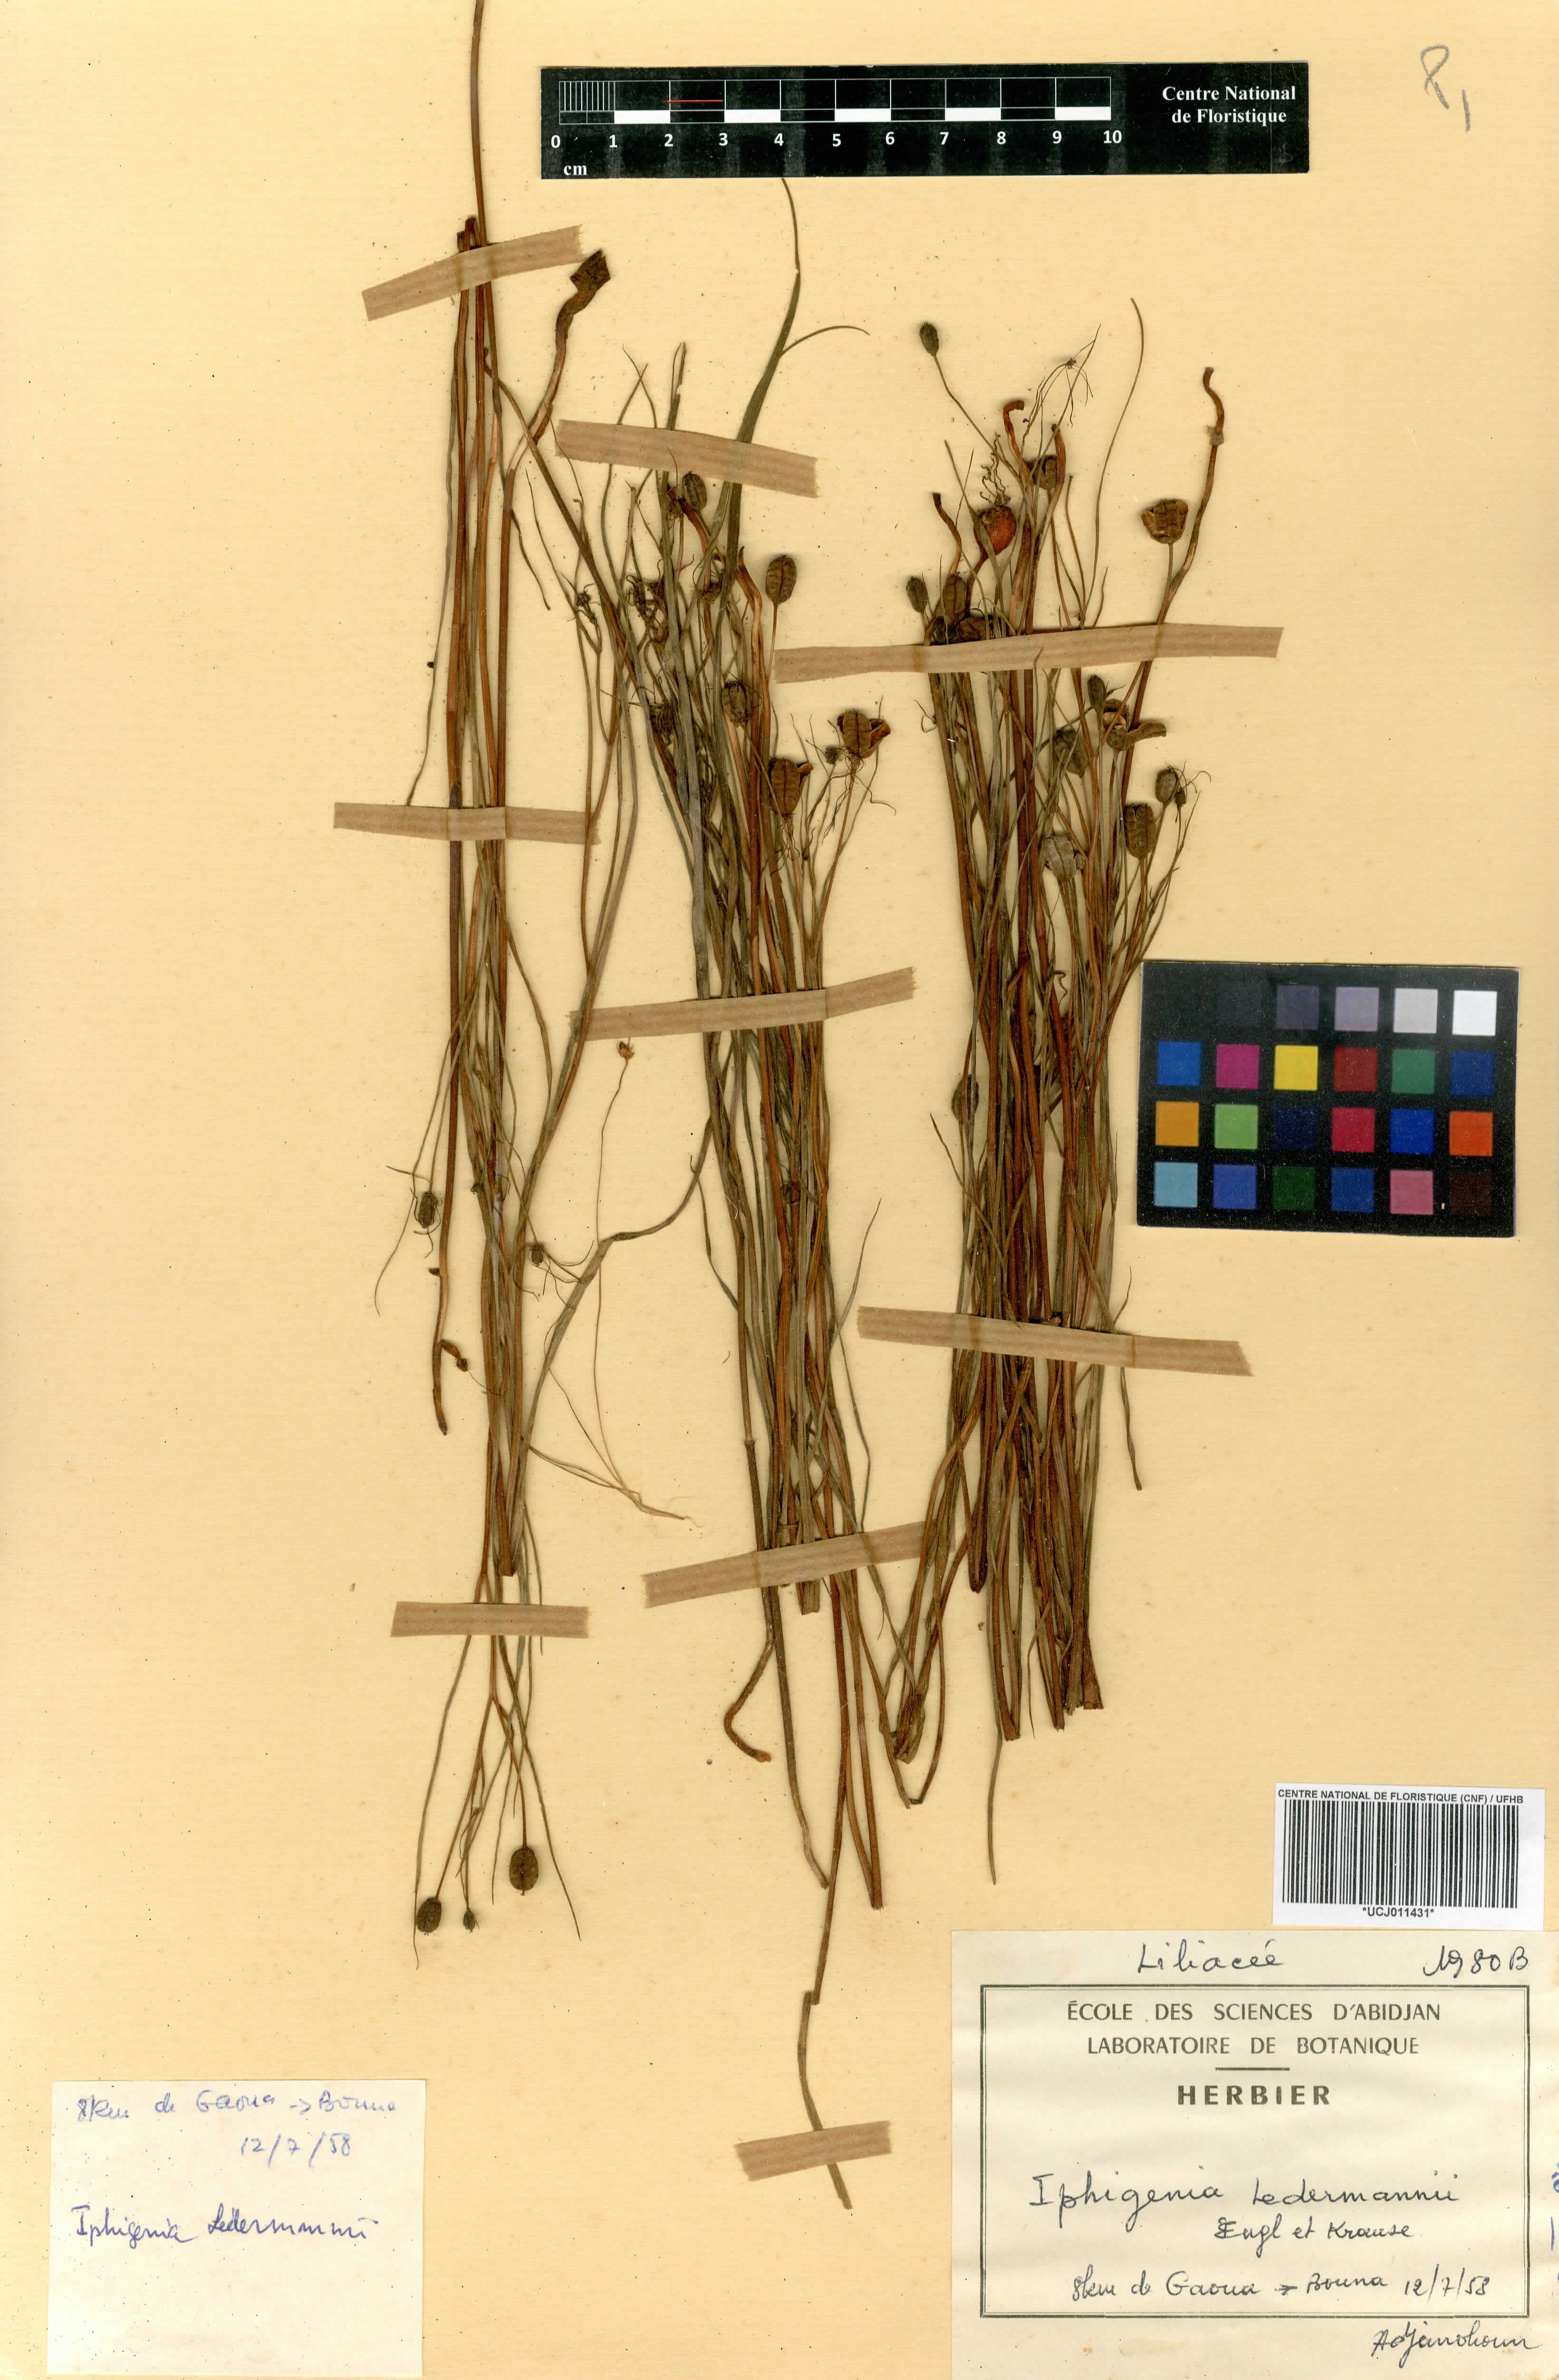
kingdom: Plantae
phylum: Tracheophyta
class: Liliopsida
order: Liliales
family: Colchicaceae
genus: Iphigenia
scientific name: Iphigenia pauciflora
